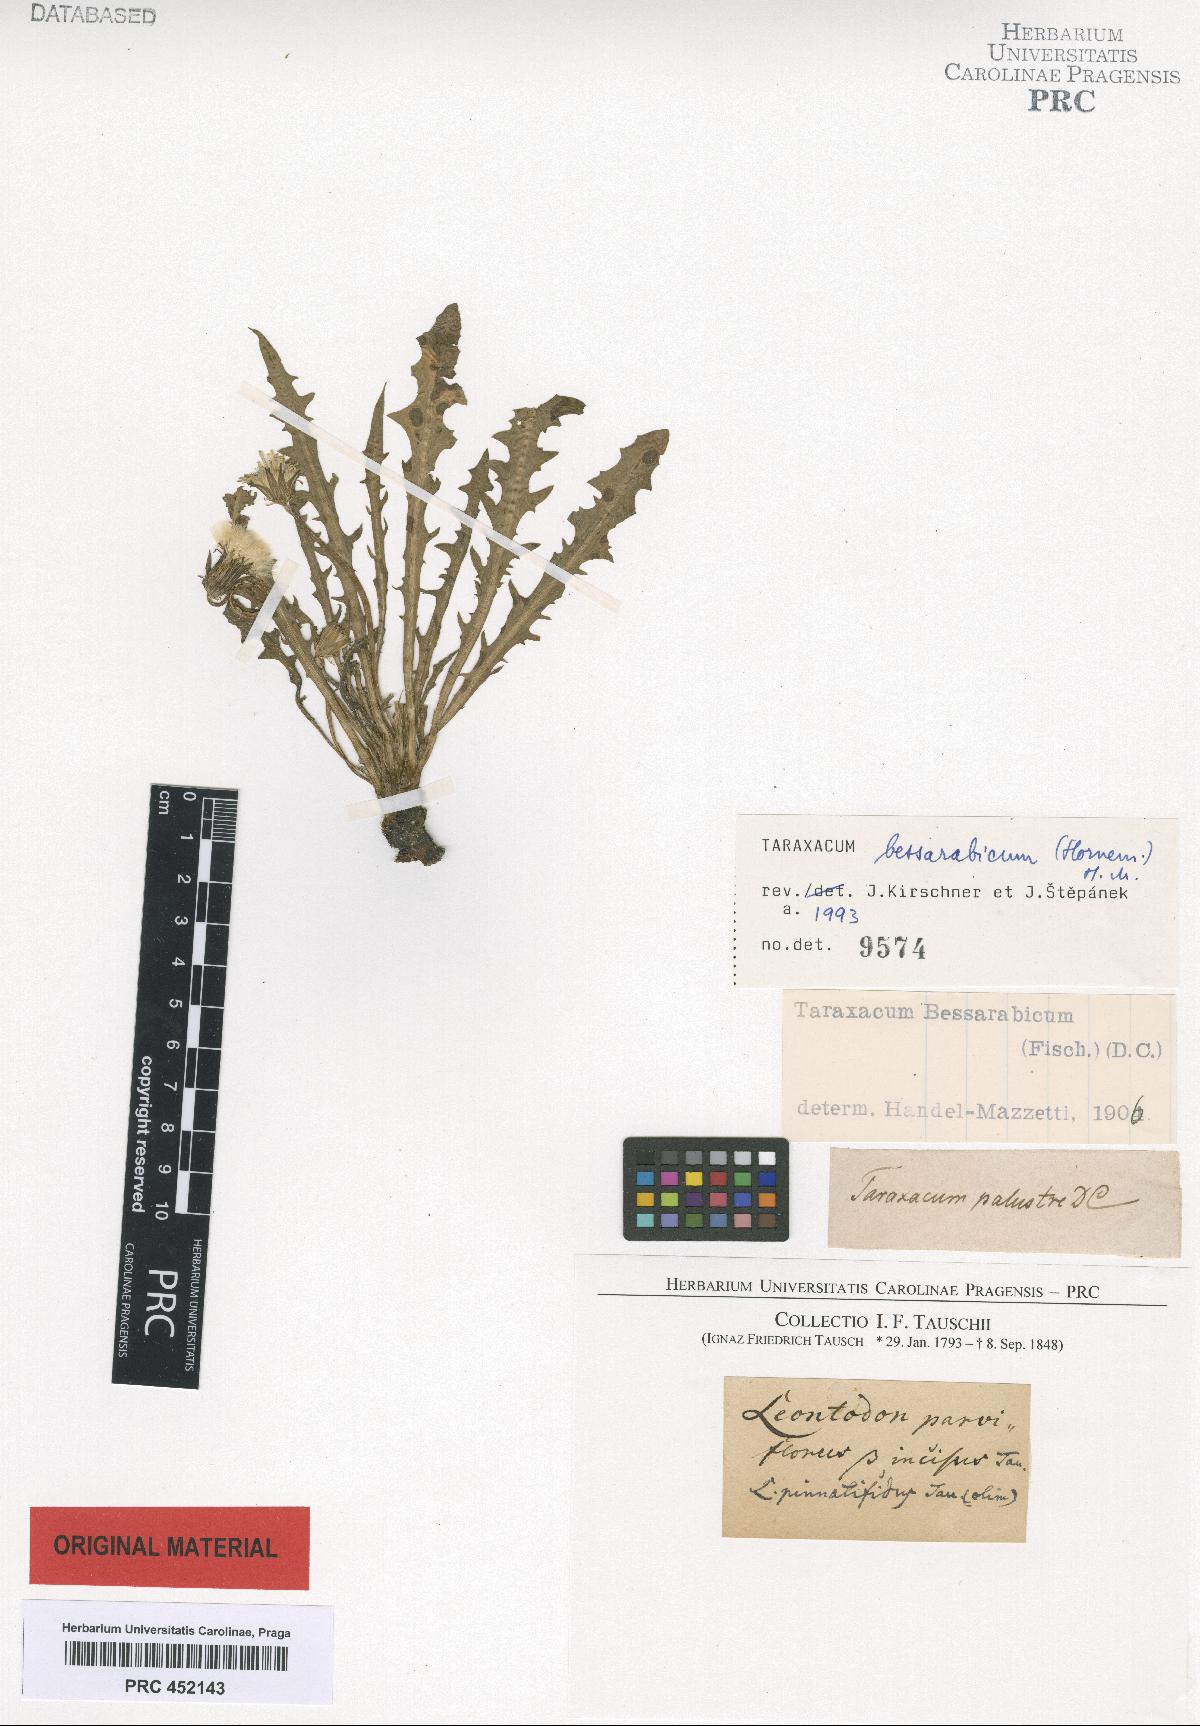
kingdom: Plantae
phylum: Tracheophyta
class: Magnoliopsida
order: Asterales
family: Asteraceae
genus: Taraxacum
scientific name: Taraxacum bessarabicum
